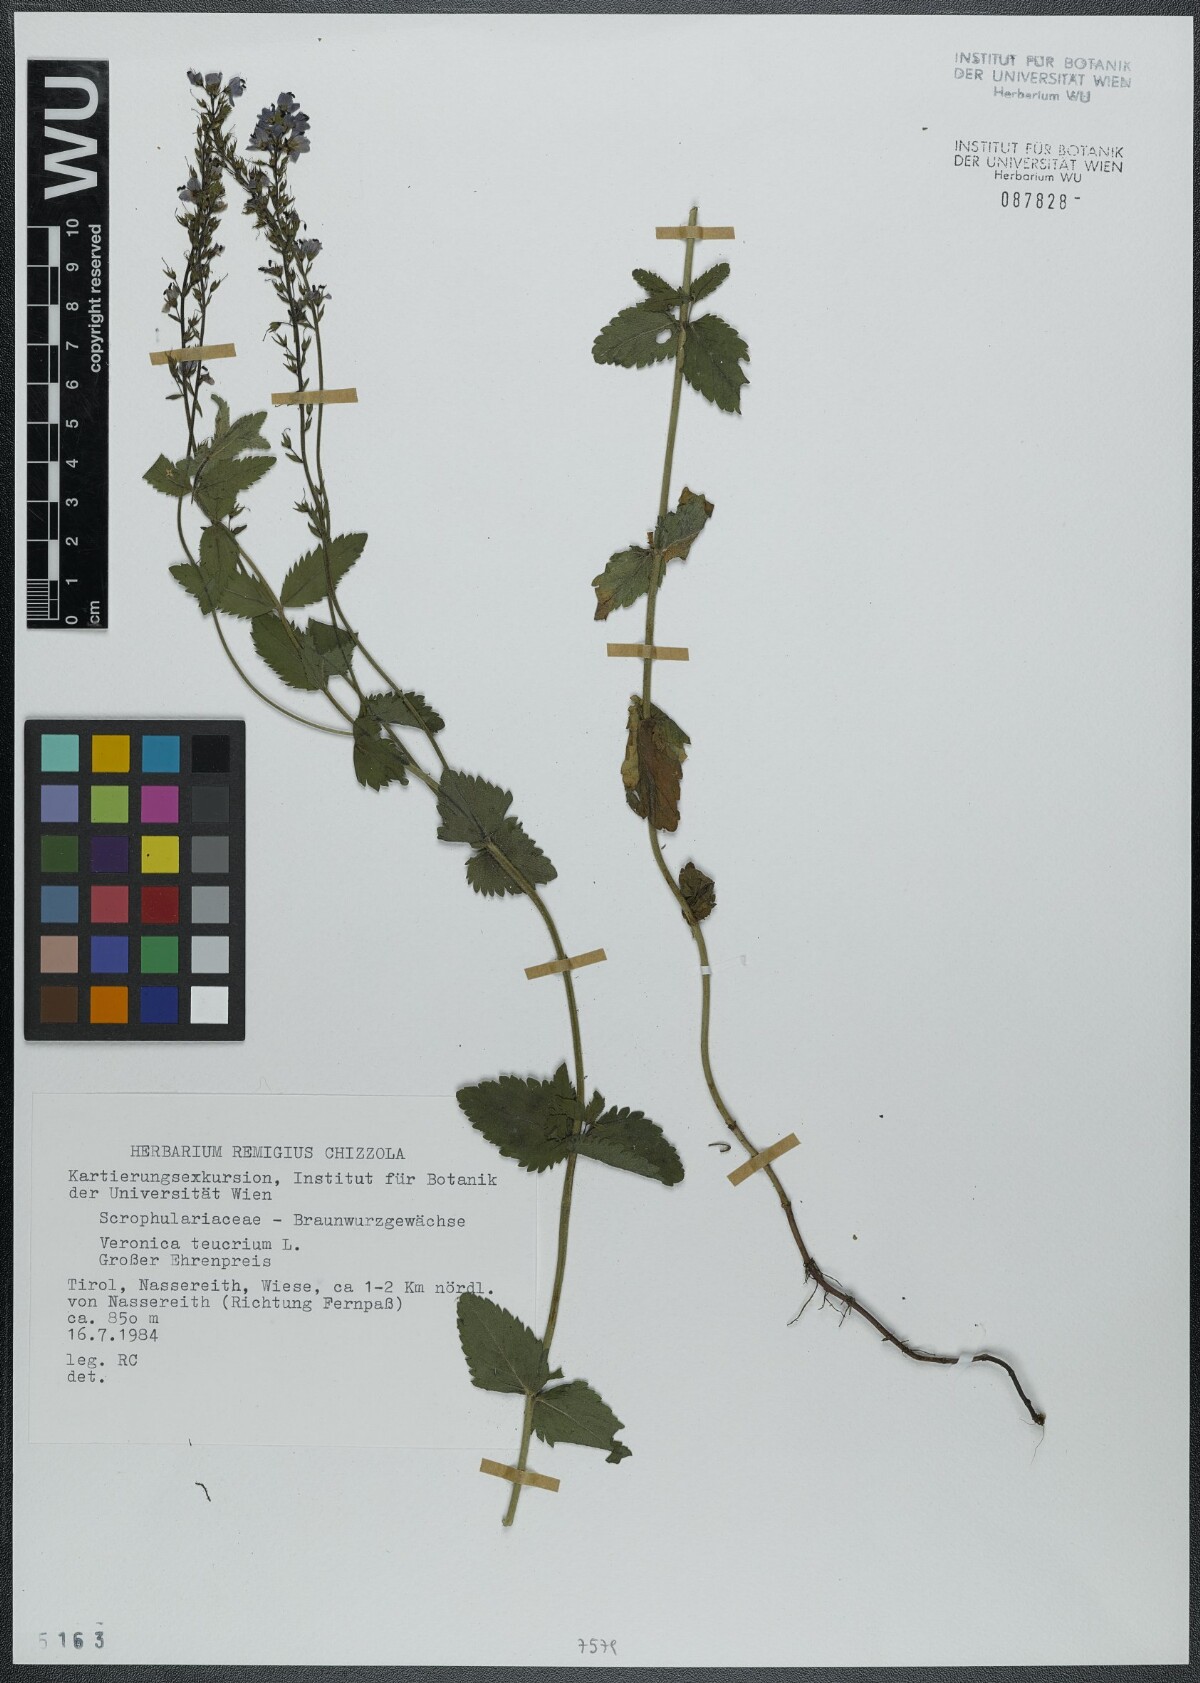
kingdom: Plantae
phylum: Tracheophyta
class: Magnoliopsida
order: Lamiales
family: Plantaginaceae
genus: Veronica
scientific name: Veronica teucrium
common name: Large speedwell
